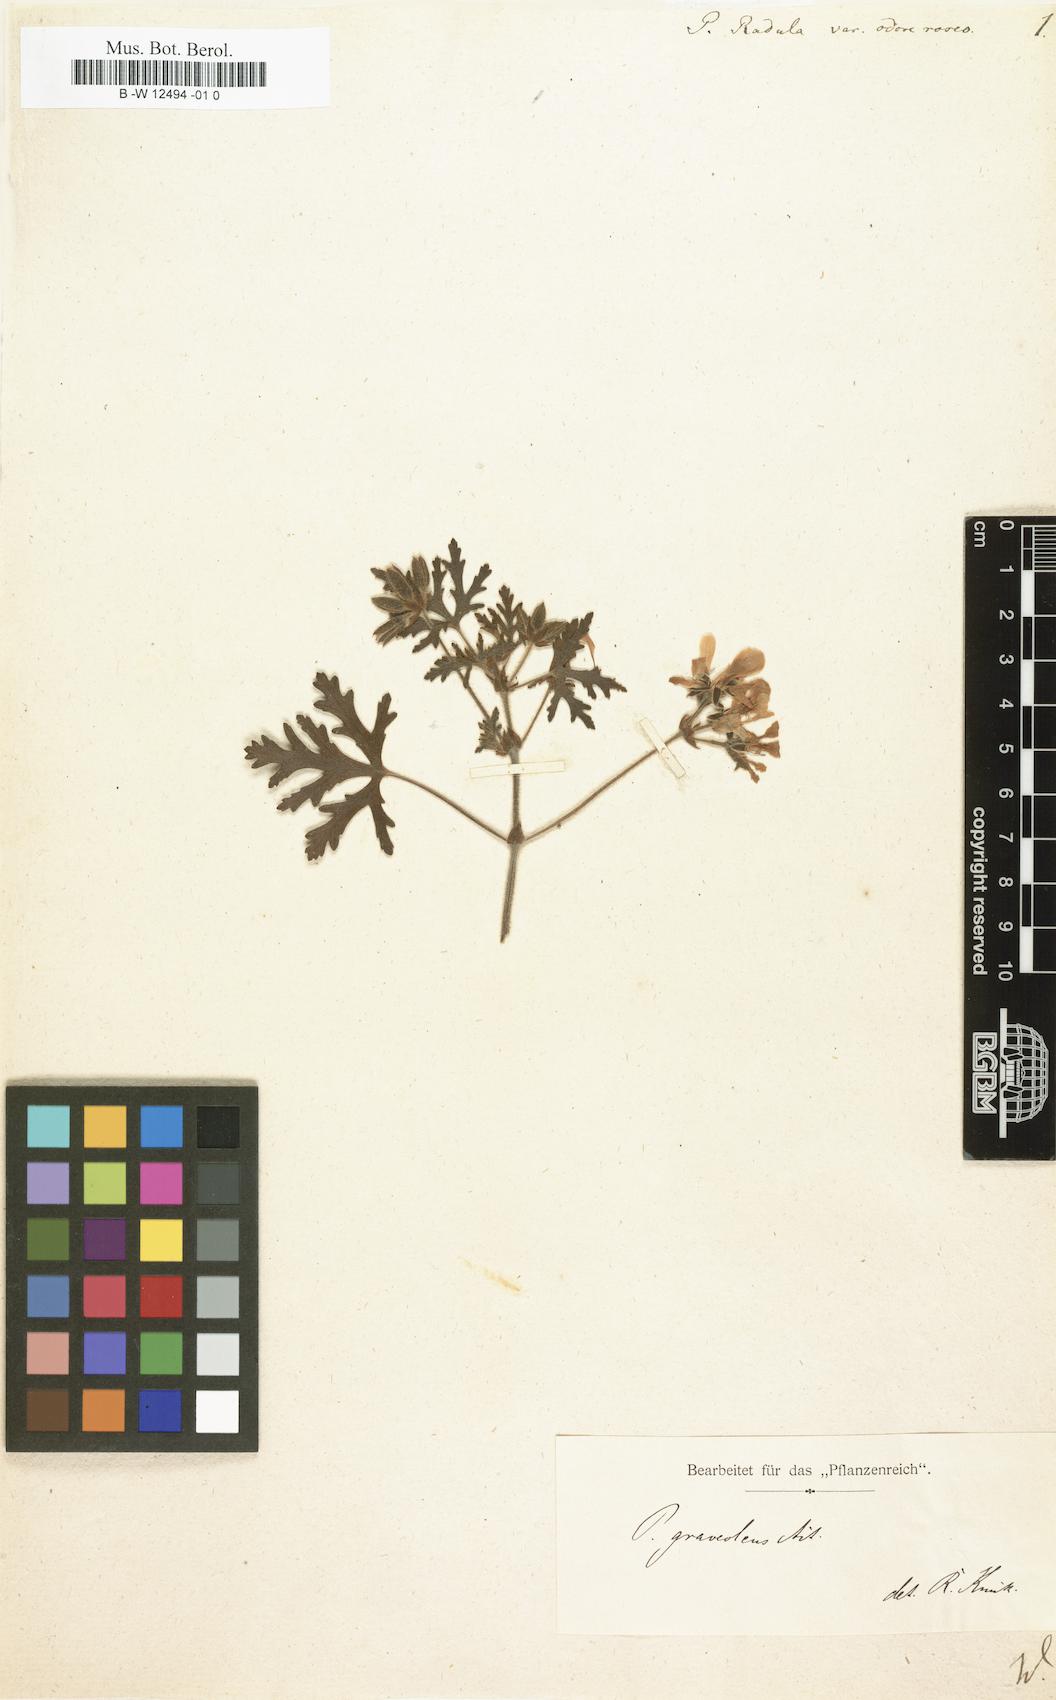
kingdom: Plantae
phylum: Tracheophyta
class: Magnoliopsida
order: Geraniales
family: Geraniaceae
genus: Pelargonium
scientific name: Pelargonium radens
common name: Rasp-leaf pelargonium
